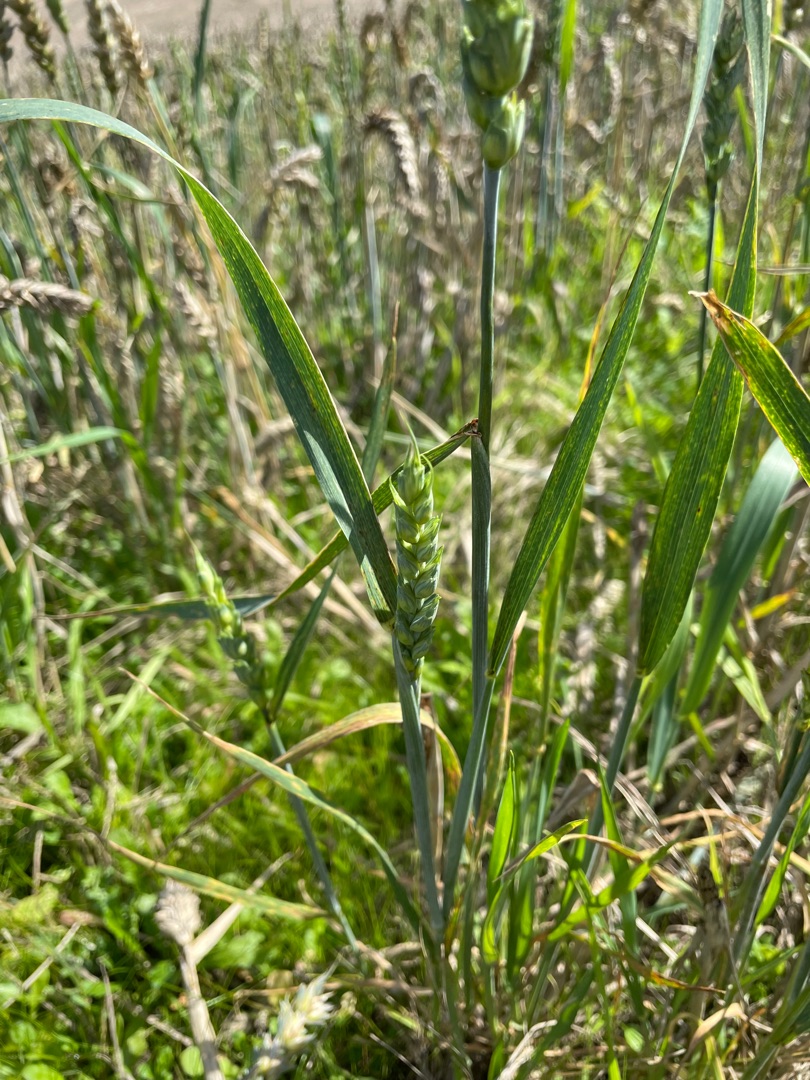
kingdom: Plantae
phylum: Tracheophyta
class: Liliopsida
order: Poales
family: Poaceae
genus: Triticum
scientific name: Triticum aestivum
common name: Almindelig hvede
